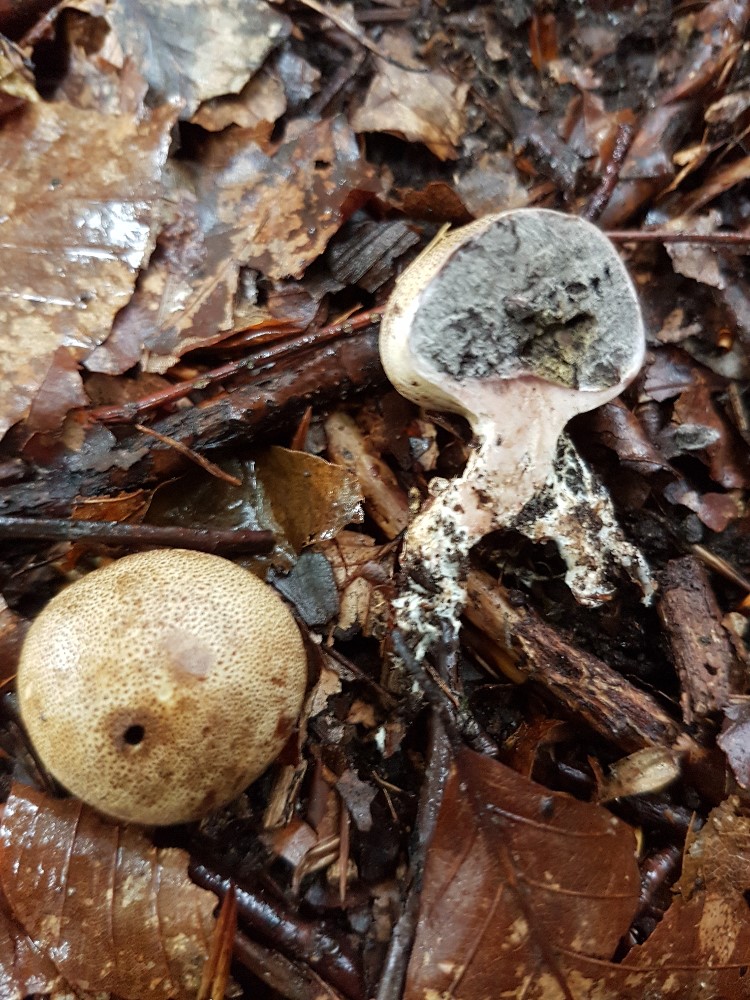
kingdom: Fungi
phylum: Basidiomycota
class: Agaricomycetes
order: Boletales
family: Sclerodermataceae
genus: Scleroderma
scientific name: Scleroderma
